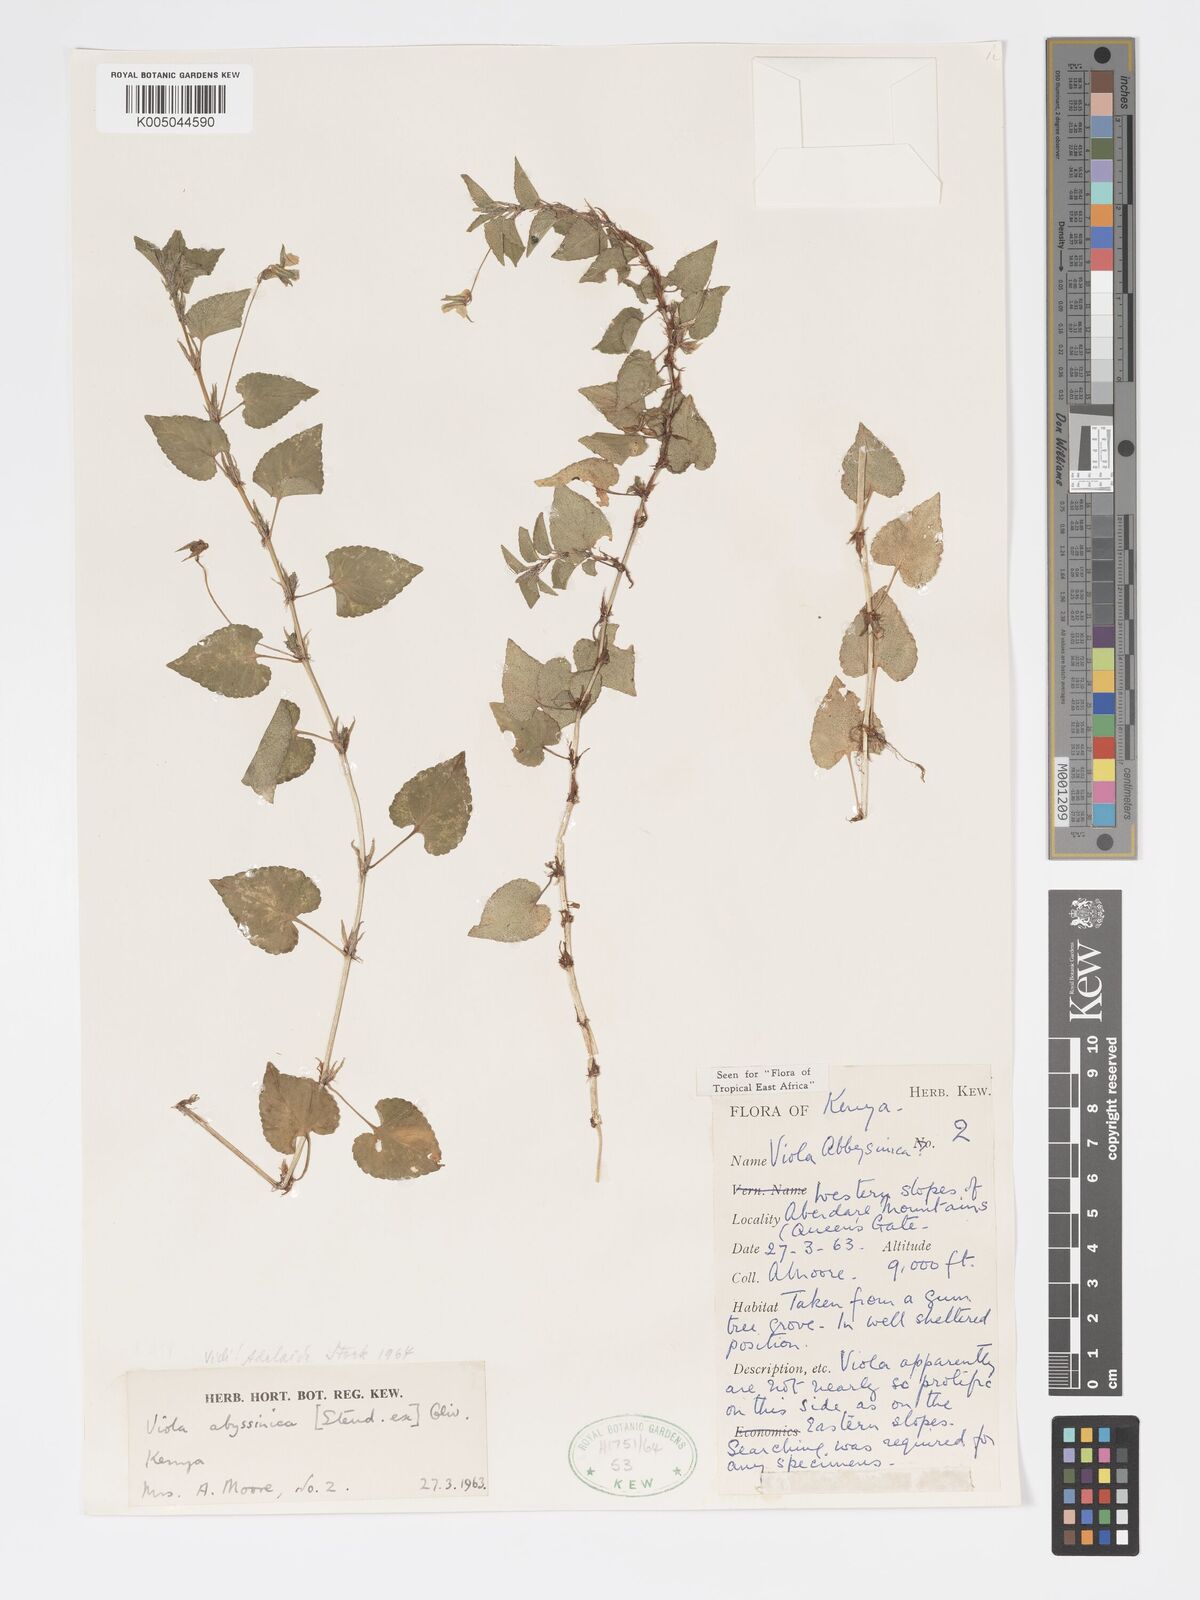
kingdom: Plantae
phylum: Tracheophyta
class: Magnoliopsida
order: Malpighiales
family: Violaceae
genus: Viola
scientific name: Viola abyssinica
